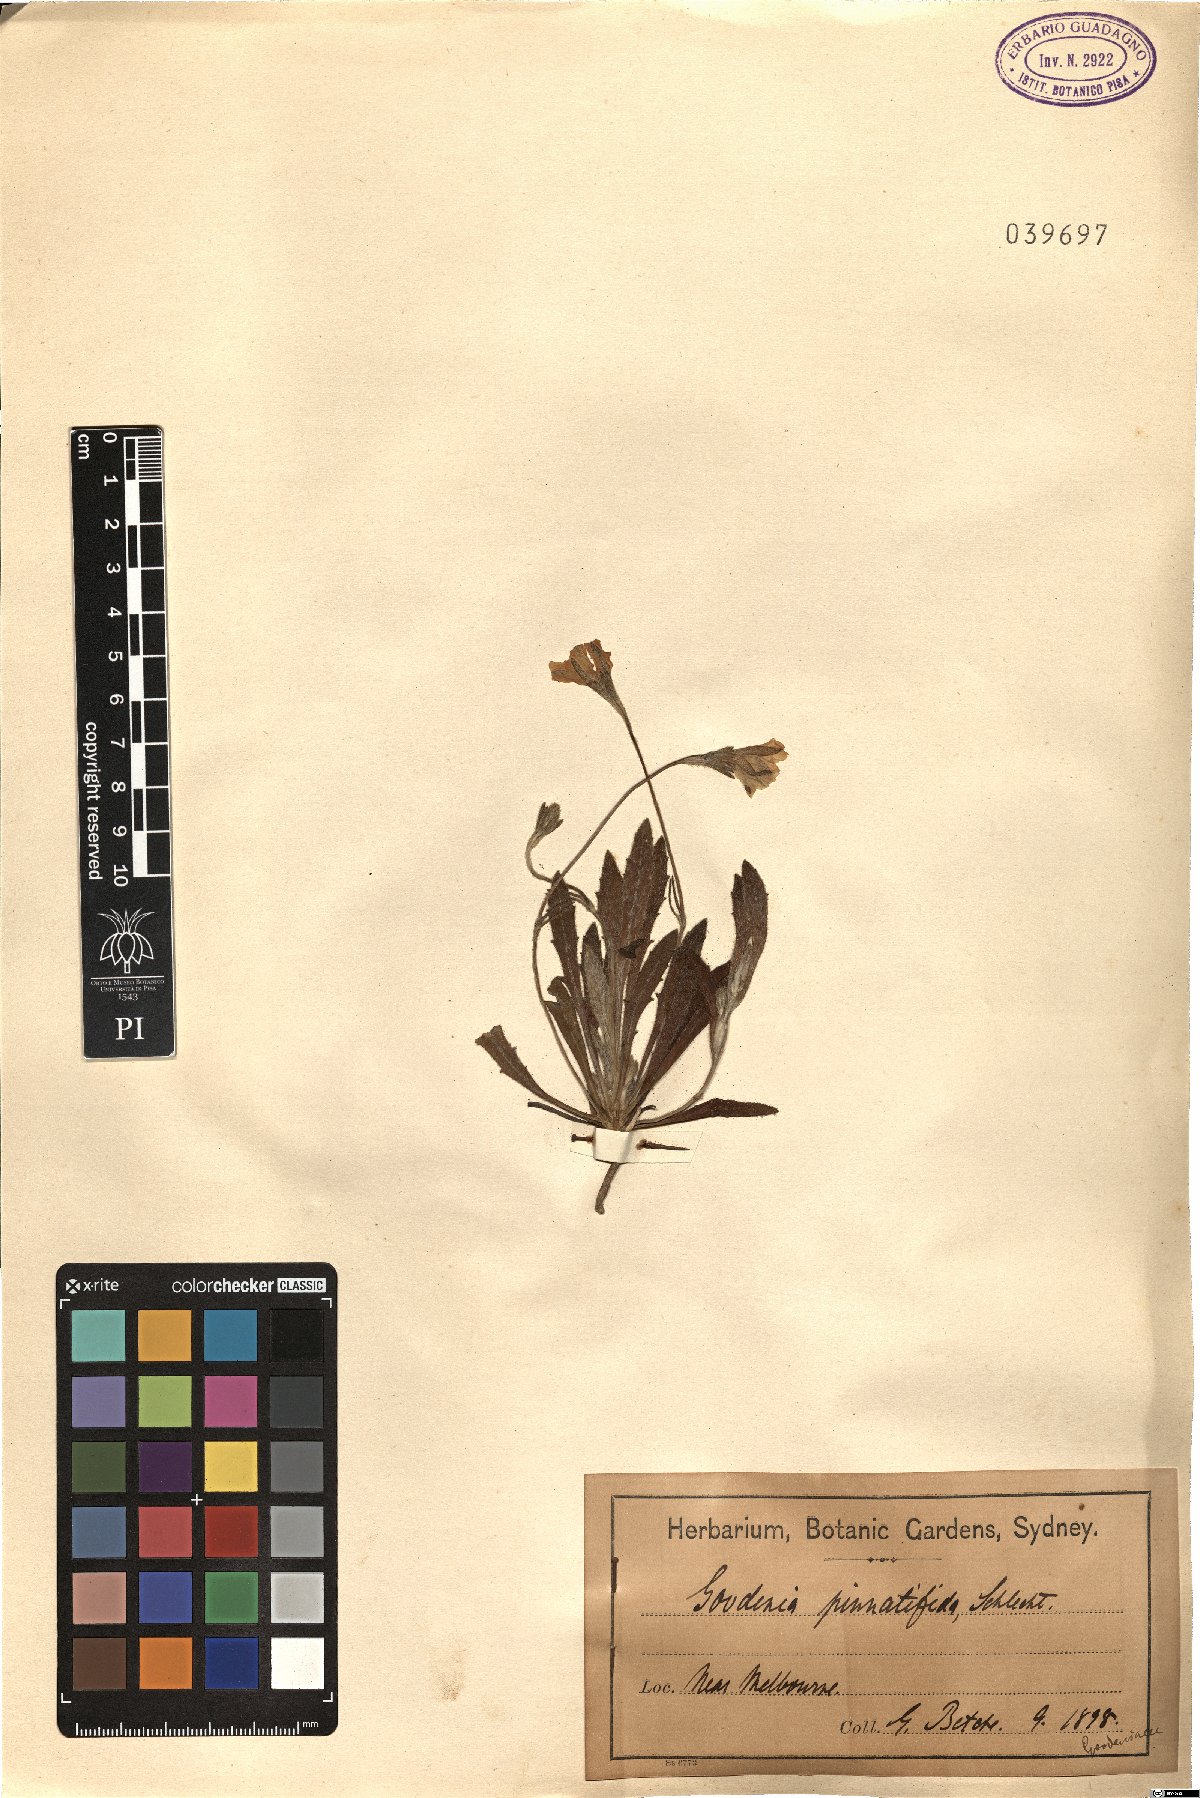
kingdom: Plantae
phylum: Tracheophyta
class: Magnoliopsida
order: Asterales
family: Goodeniaceae
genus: Goodenia
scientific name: Goodenia pinnatifida
